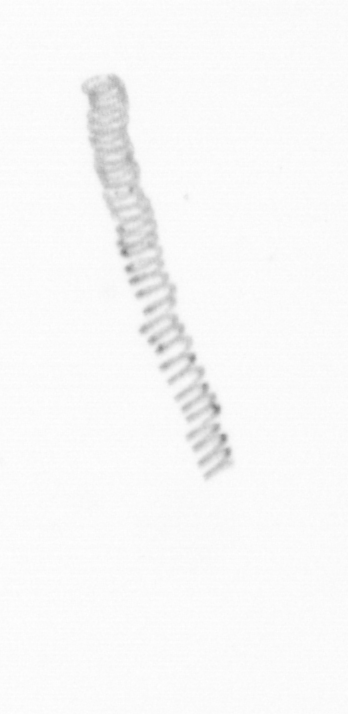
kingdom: Chromista
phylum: Ochrophyta
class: Bacillariophyceae
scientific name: Bacillariophyceae
